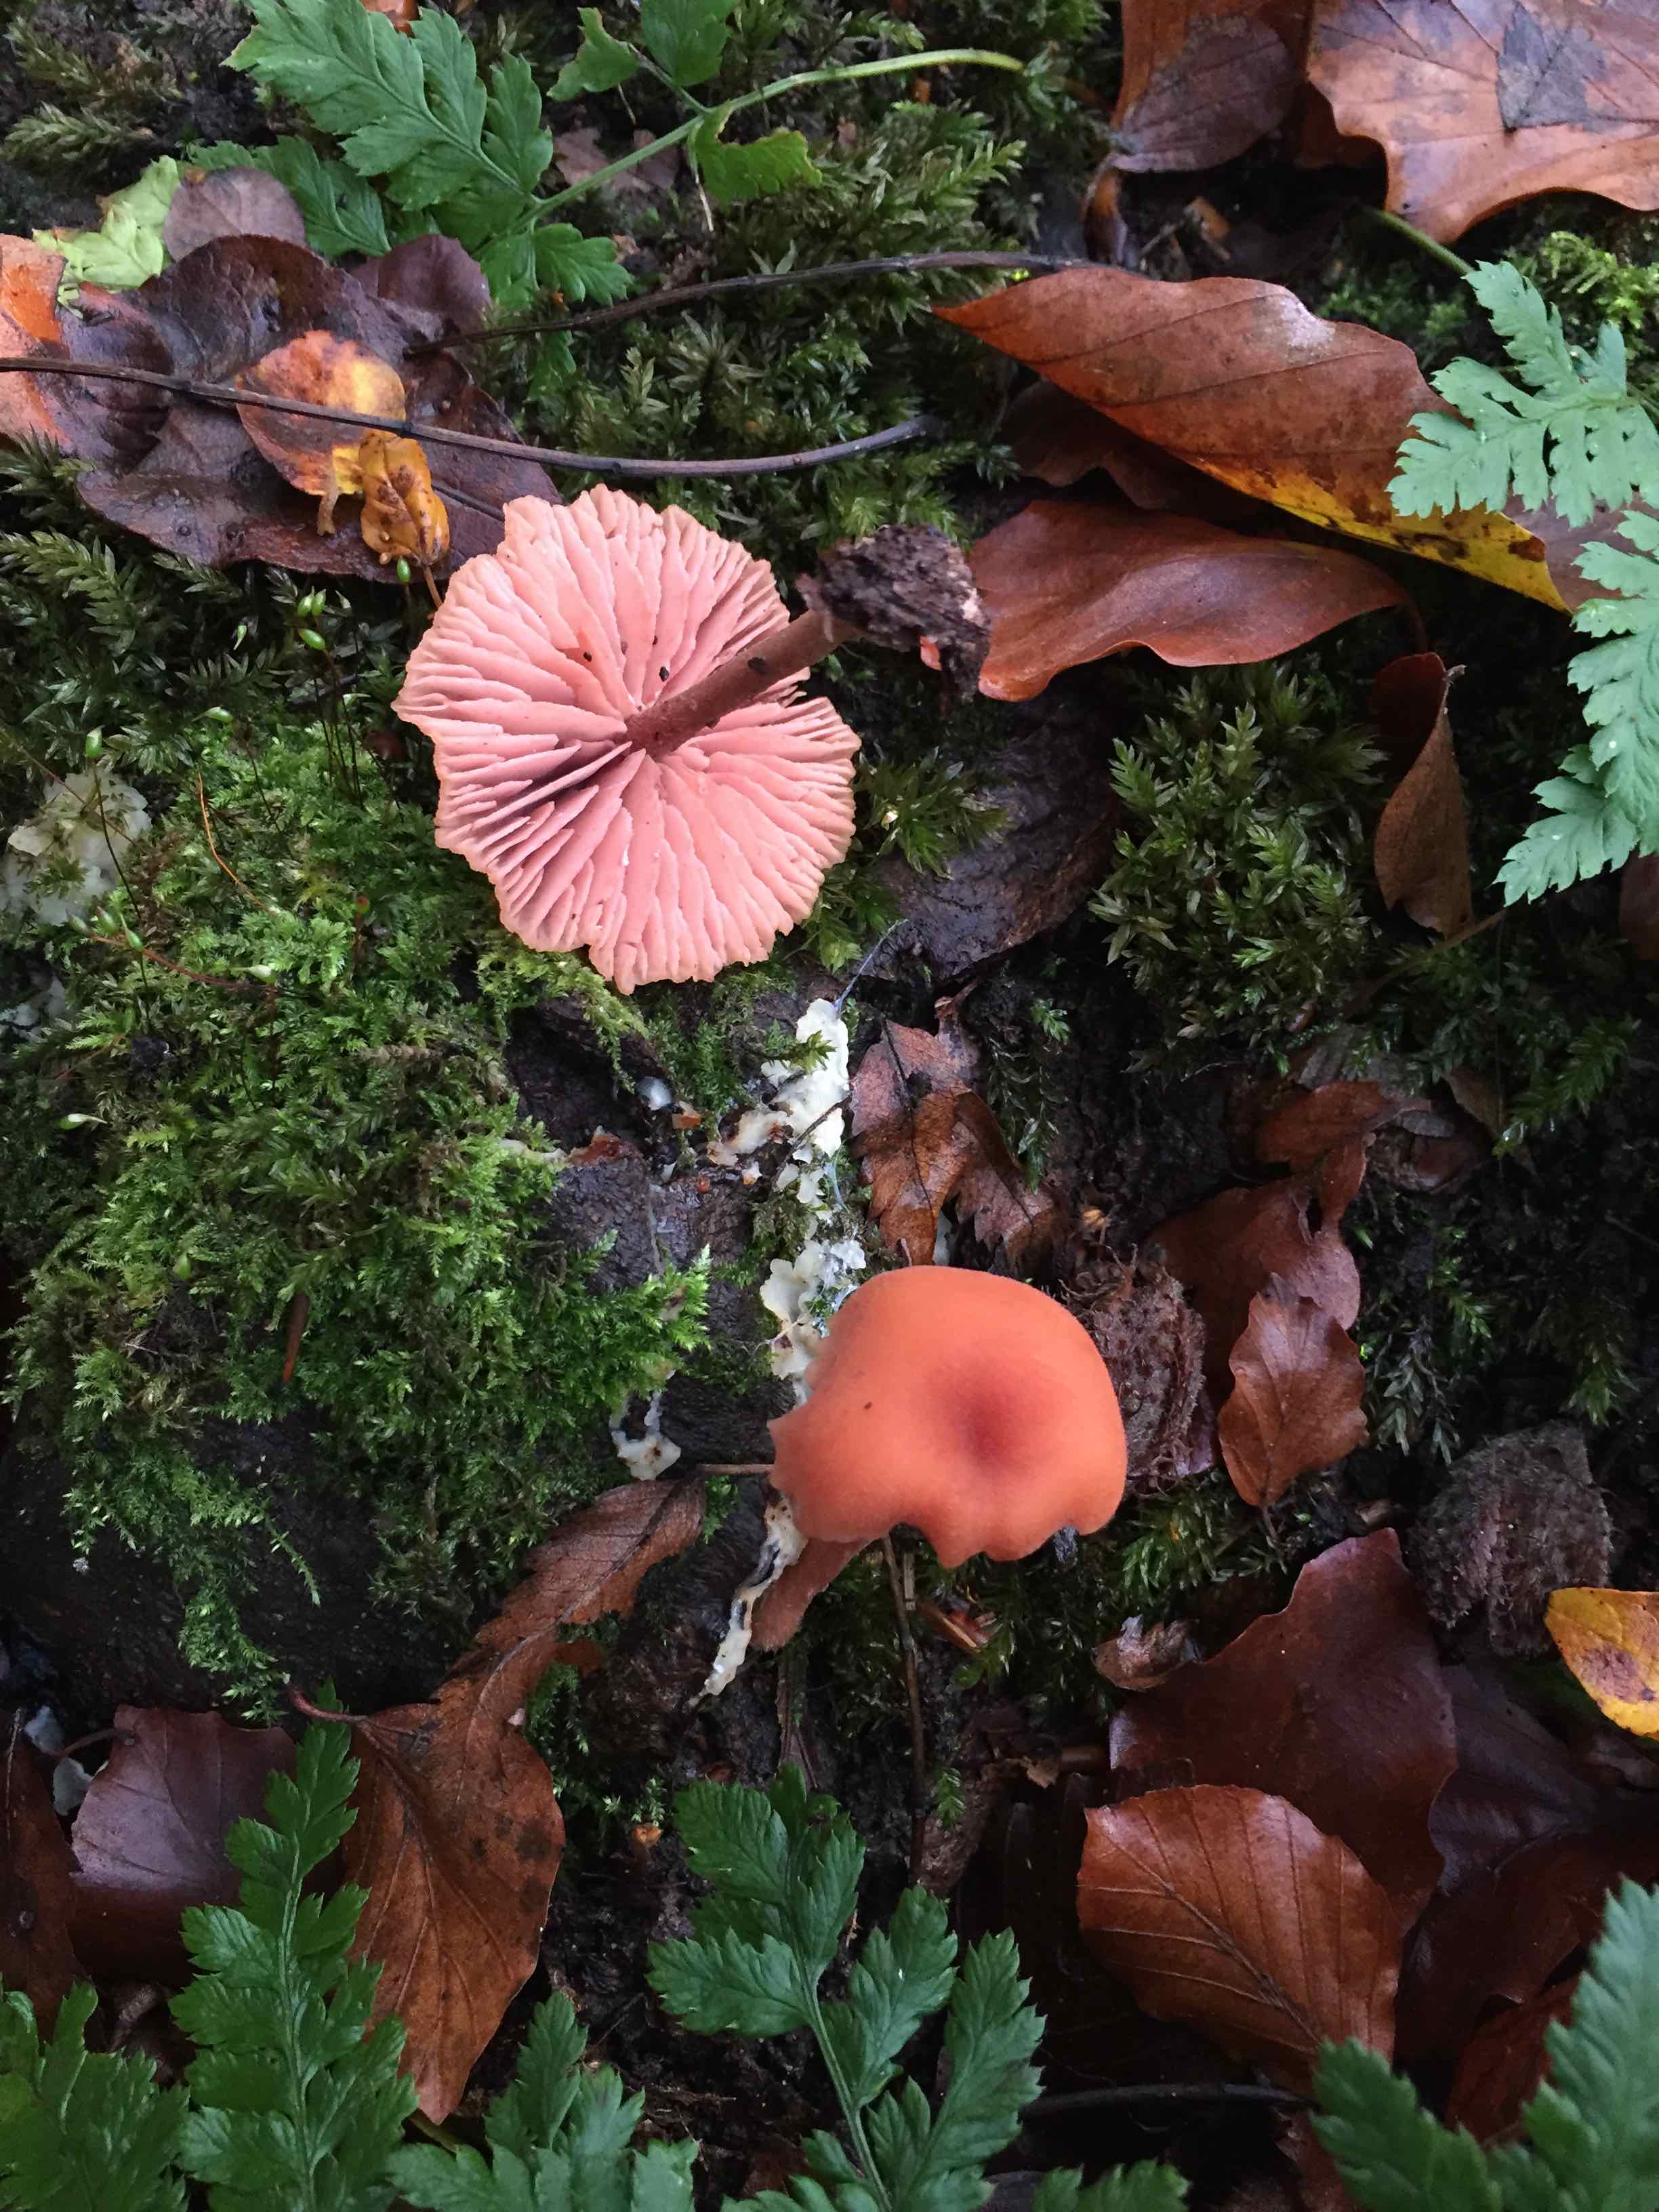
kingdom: Fungi
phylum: Basidiomycota
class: Agaricomycetes
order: Agaricales
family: Hydnangiaceae
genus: Laccaria
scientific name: Laccaria laccata
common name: rød ametysthat
